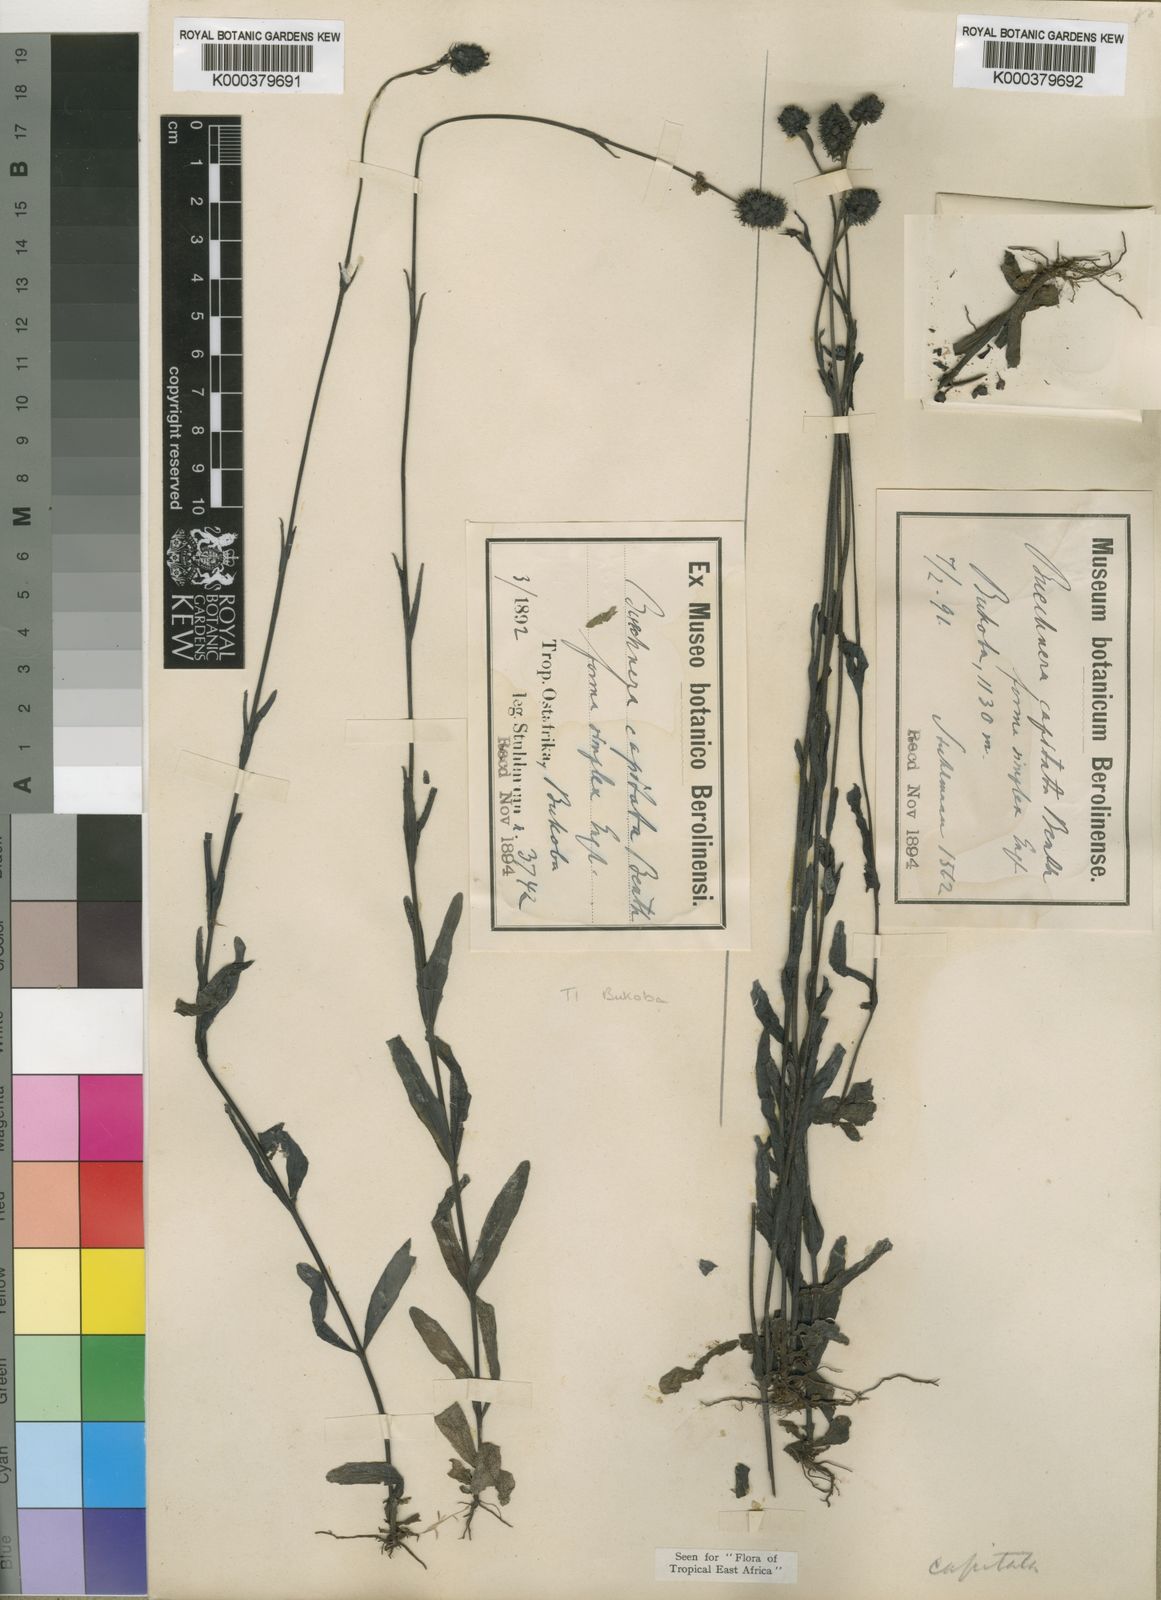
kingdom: Plantae
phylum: Tracheophyta
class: Magnoliopsida
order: Lamiales
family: Orobanchaceae
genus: Buchnera
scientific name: Buchnera
